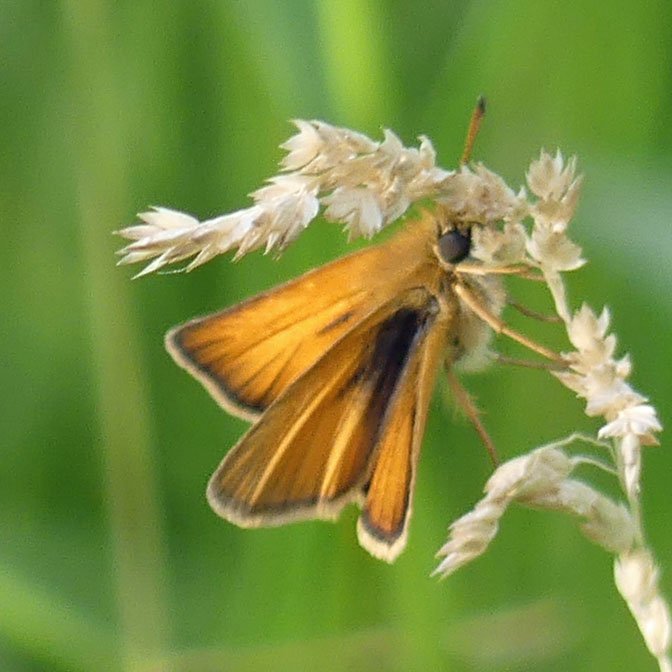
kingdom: Animalia
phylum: Arthropoda
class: Insecta
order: Lepidoptera
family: Hesperiidae
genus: Thymelicus
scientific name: Thymelicus lineola
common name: European Skipper
